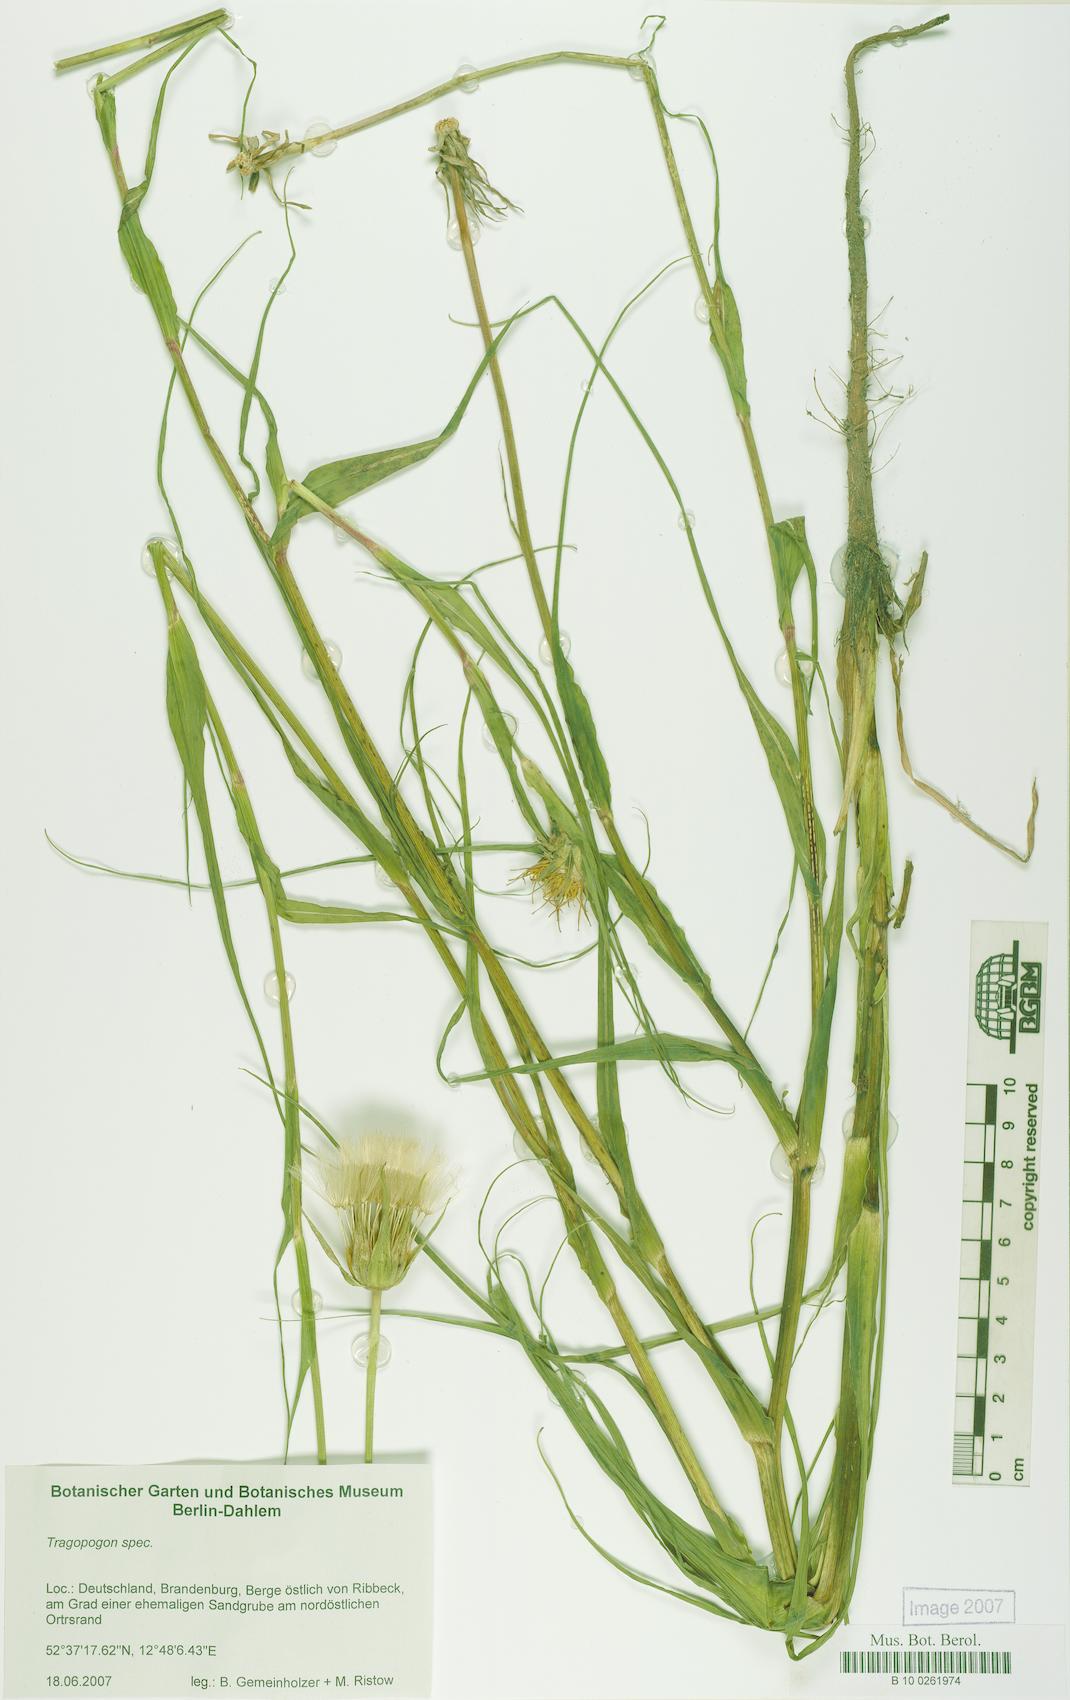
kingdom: Plantae
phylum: Tracheophyta
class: Magnoliopsida
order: Asterales
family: Asteraceae
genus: Tragopogon
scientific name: Tragopogon
